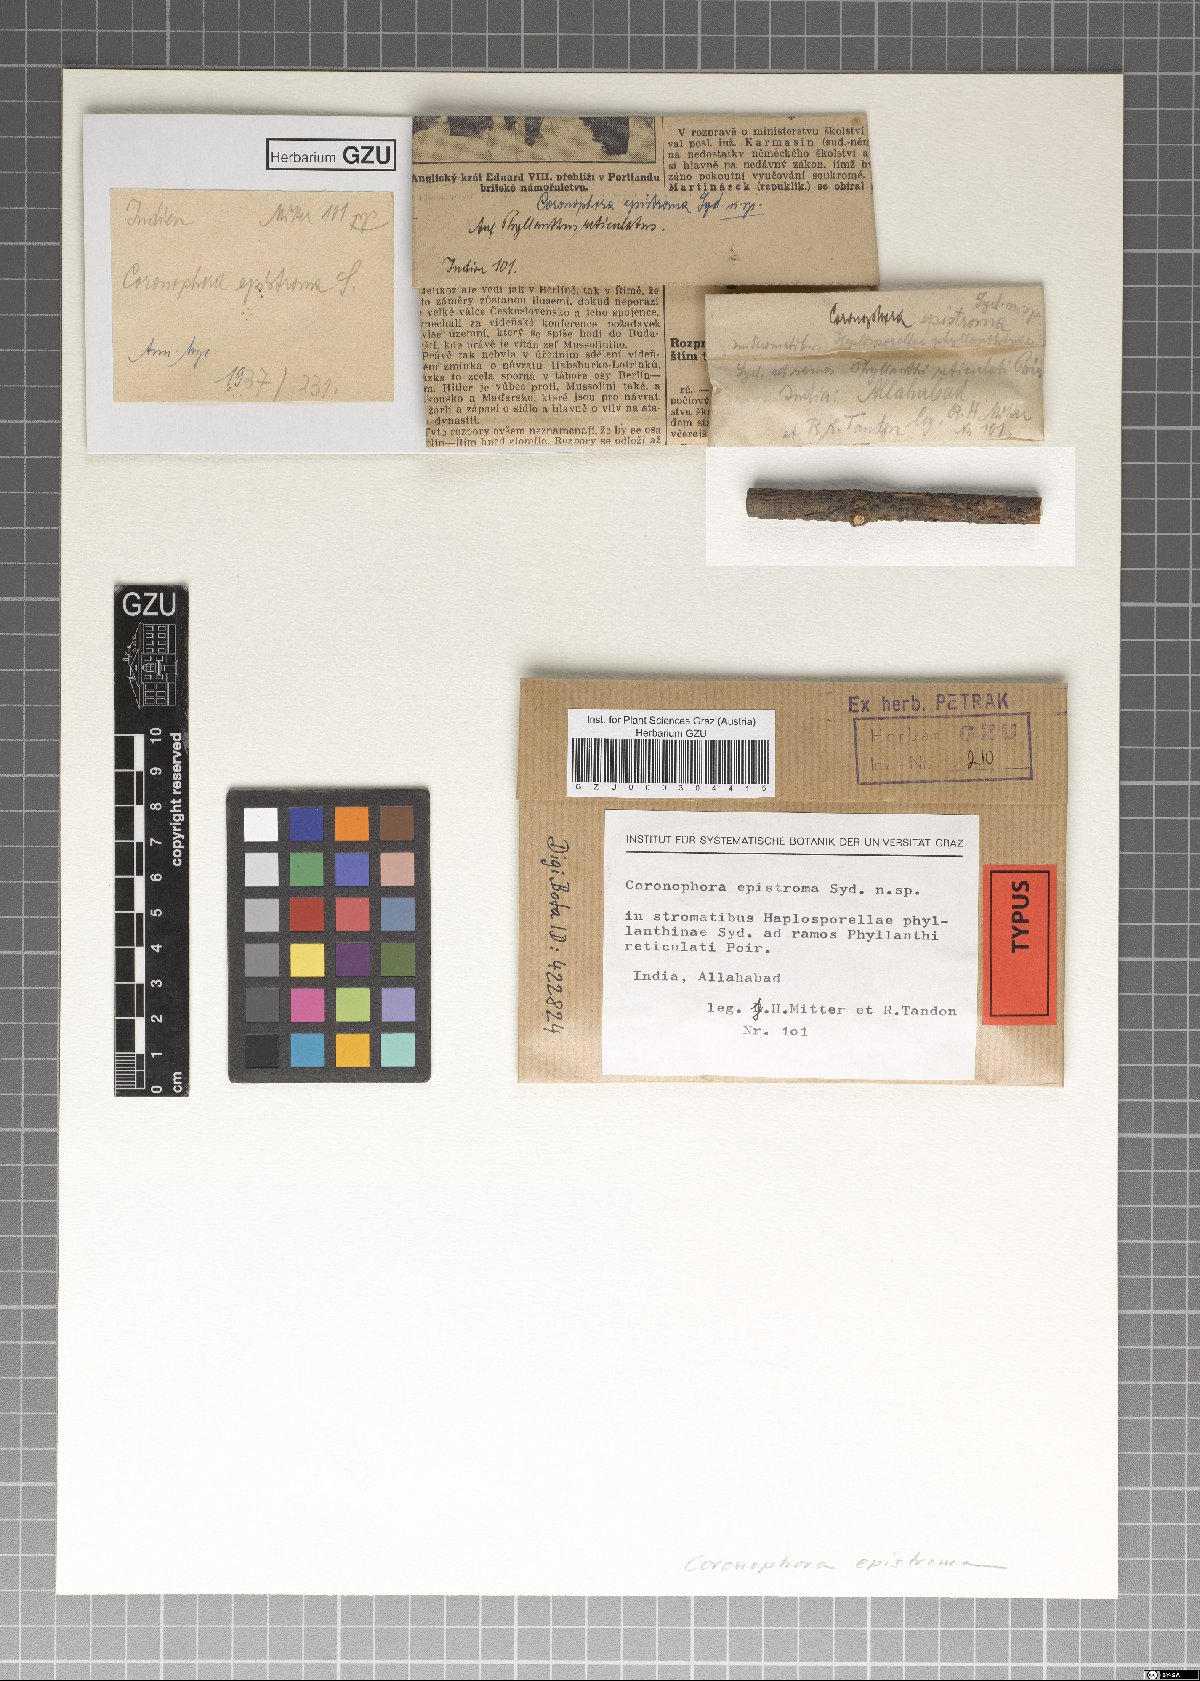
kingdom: Fungi
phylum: Ascomycota
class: Sordariomycetes
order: Coronophorales
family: Coronophoraceae
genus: Coronophora
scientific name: Coronophora epistroma
